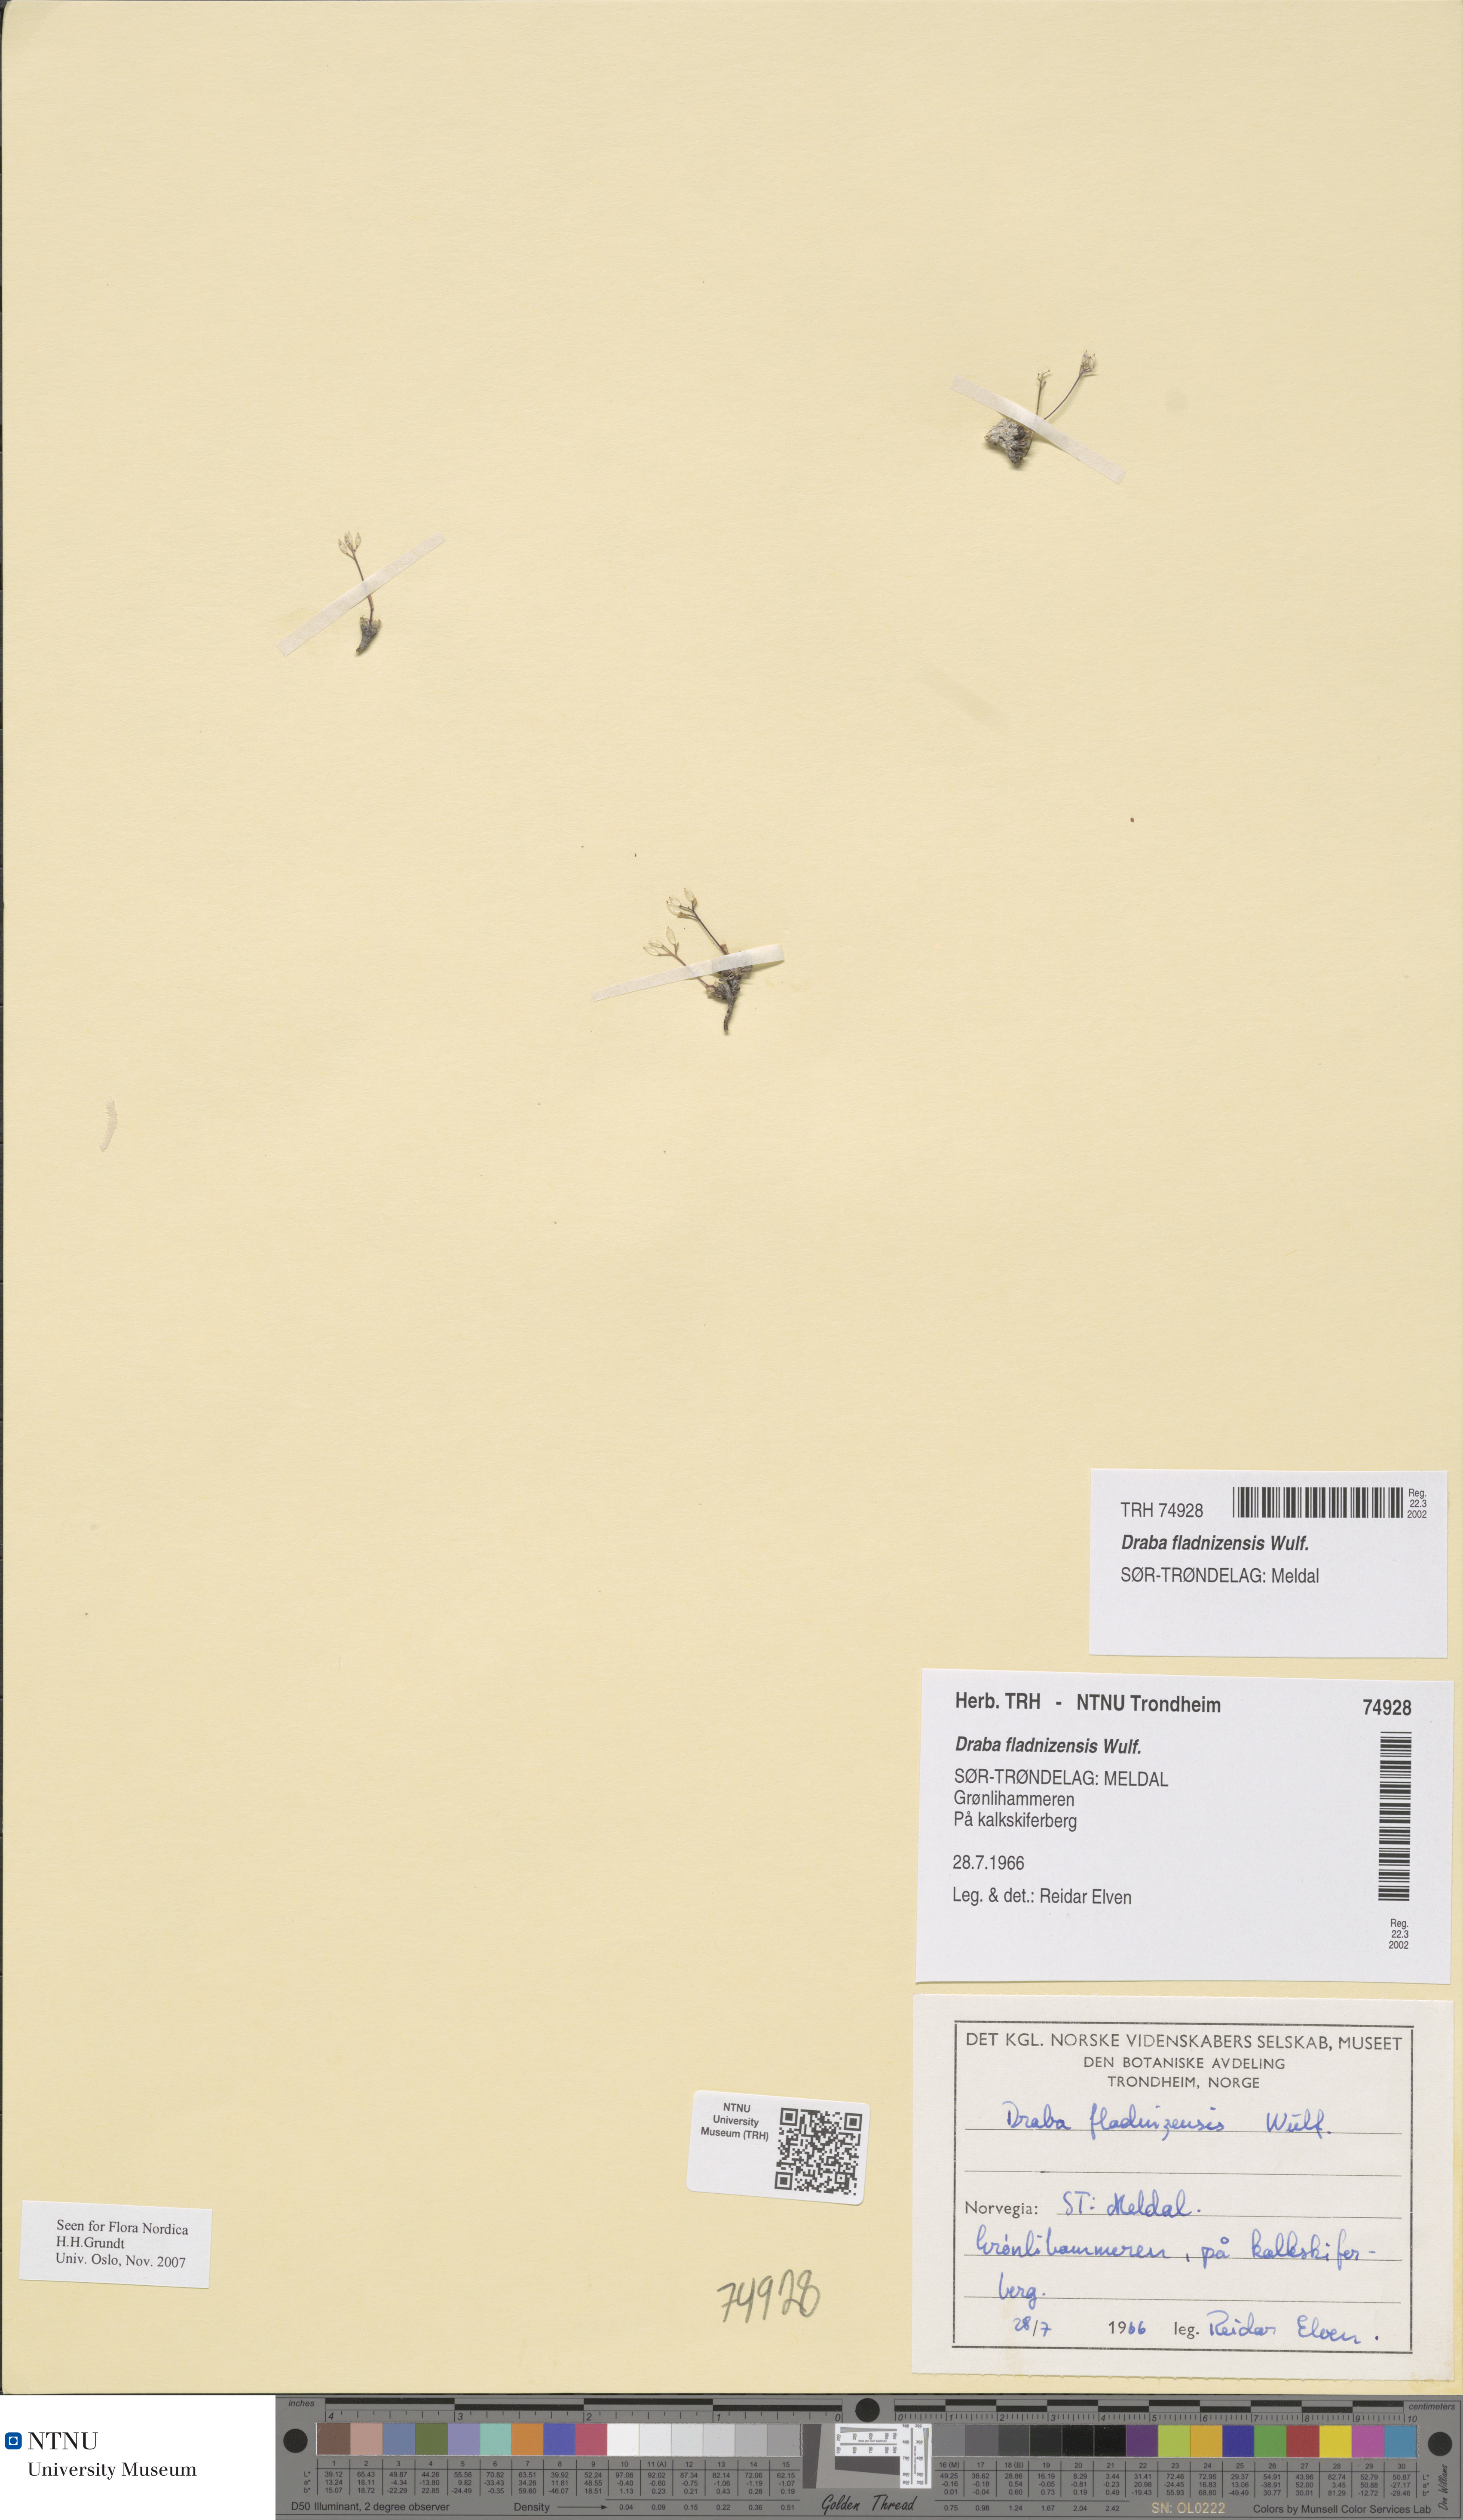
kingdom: Plantae
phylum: Tracheophyta
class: Magnoliopsida
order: Brassicales
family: Brassicaceae
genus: Draba
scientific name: Draba fladnizensis
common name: Austrian draba
